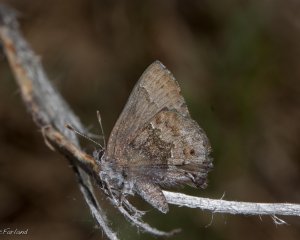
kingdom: Animalia
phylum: Arthropoda
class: Insecta
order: Lepidoptera
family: Lycaenidae
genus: Thecla
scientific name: Thecla irus
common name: Frosted Elfin
